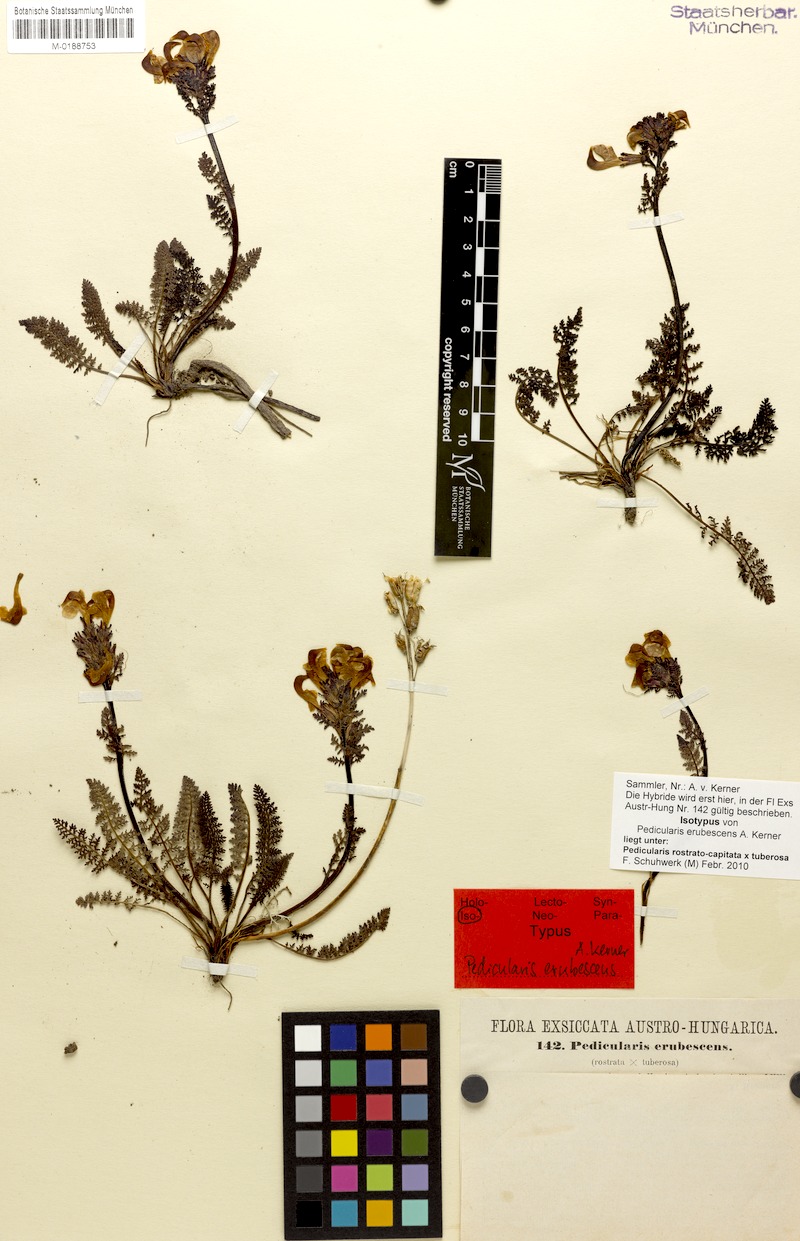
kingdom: Plantae
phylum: Tracheophyta
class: Magnoliopsida
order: Lamiales
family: Orobanchaceae
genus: Pedicularis
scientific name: Pedicularis rostratocapitata
